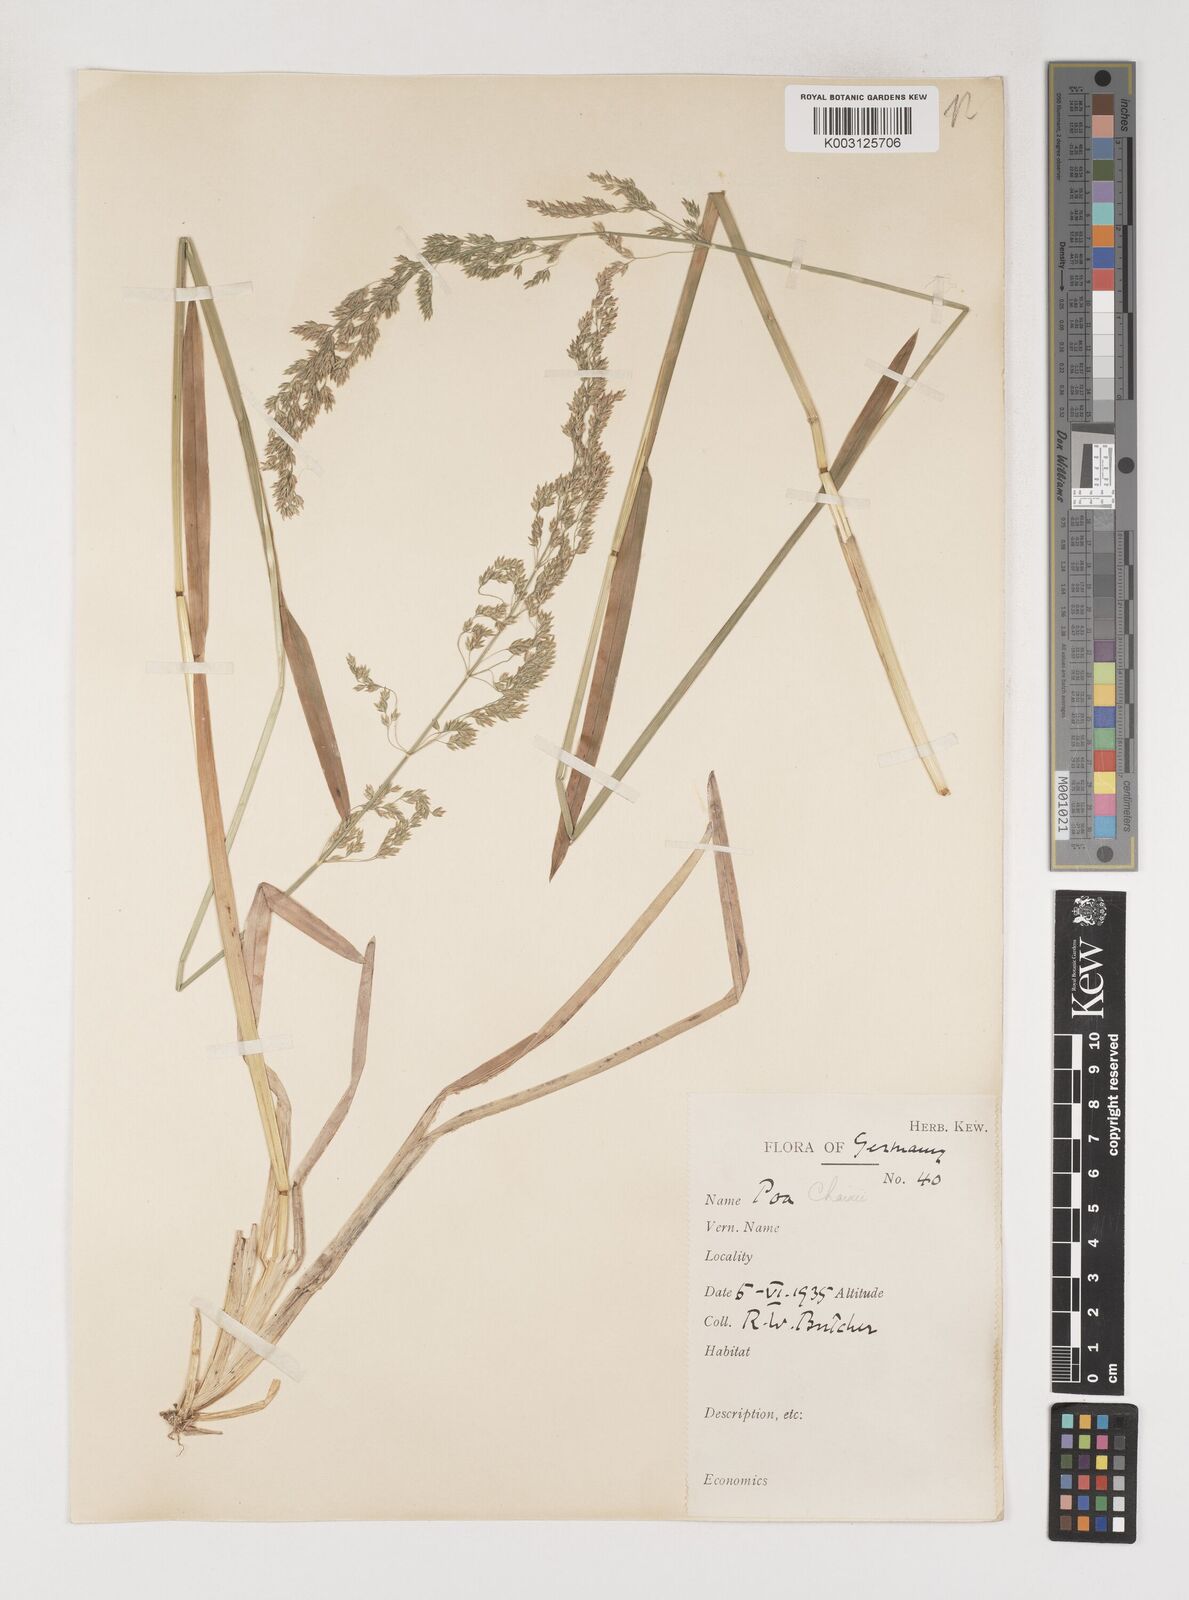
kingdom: Plantae
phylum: Tracheophyta
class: Liliopsida
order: Poales
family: Poaceae
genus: Poa
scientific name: Poa chaixii
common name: Broad-leaved meadow-grass
